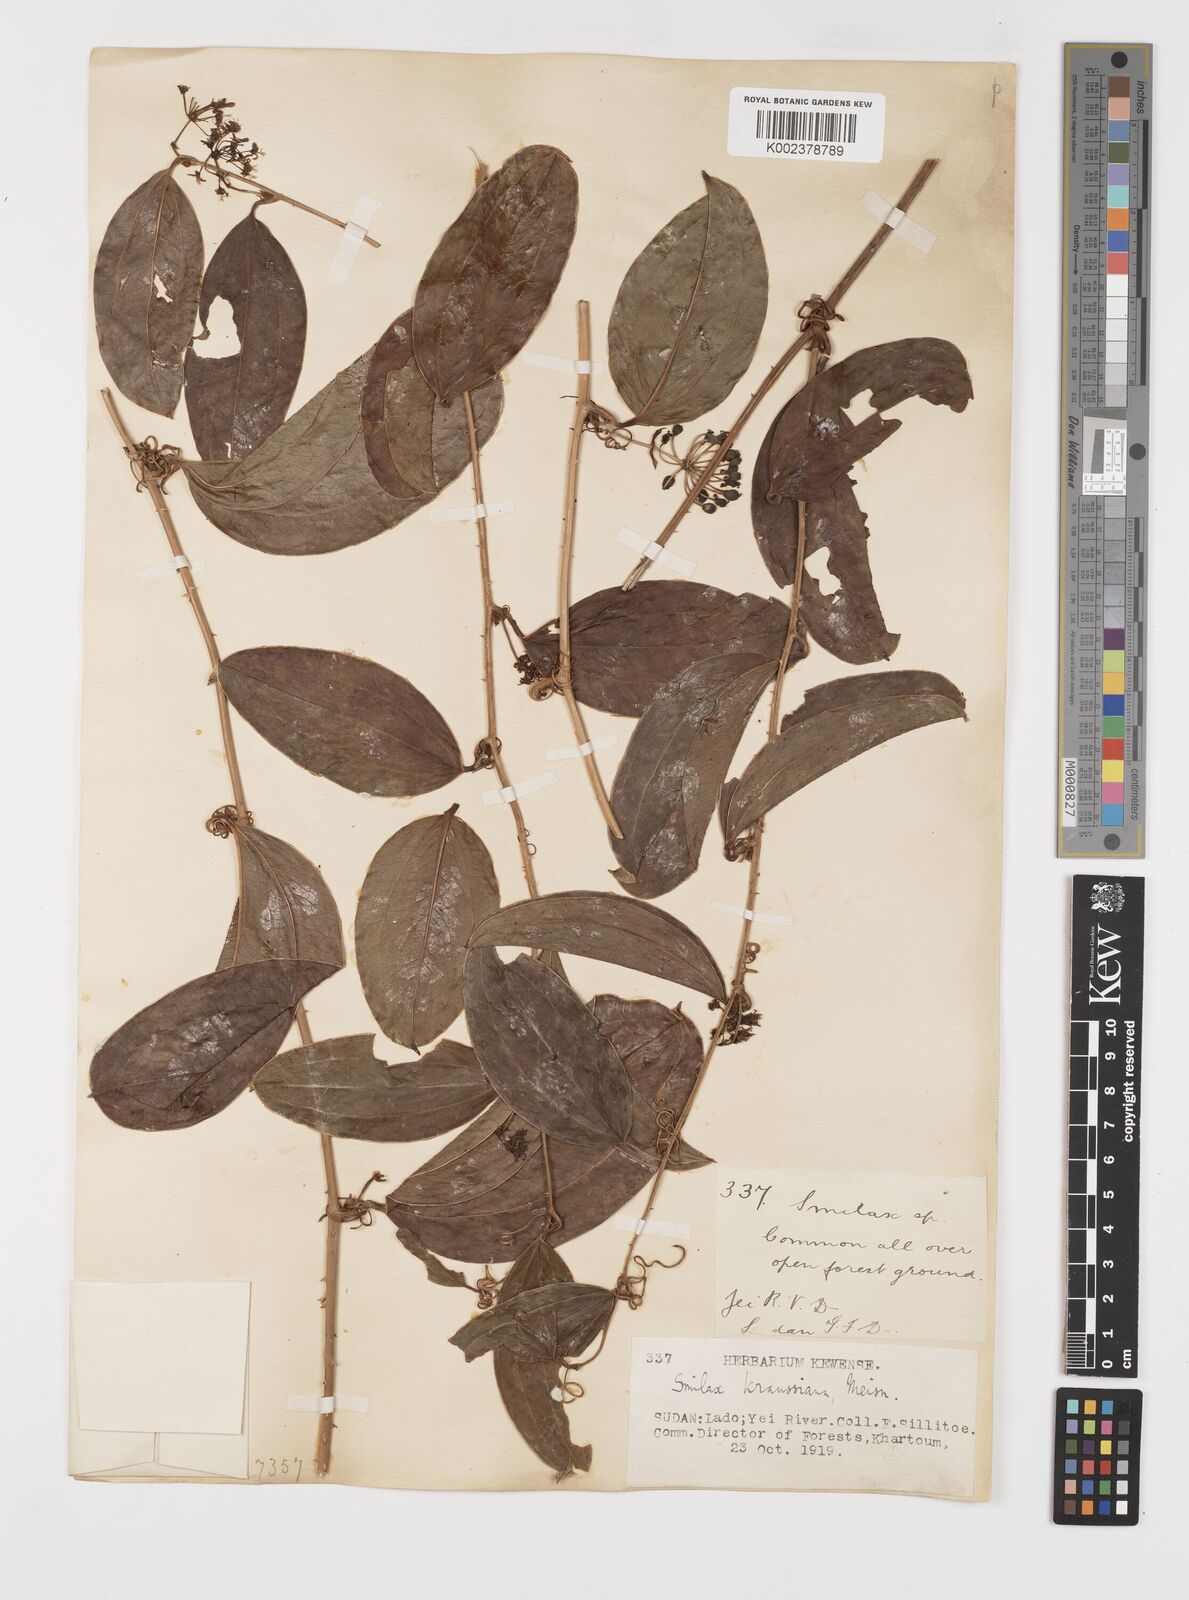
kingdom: Plantae
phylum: Tracheophyta
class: Liliopsida
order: Liliales
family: Smilacaceae
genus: Smilax
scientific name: Smilax anceps
